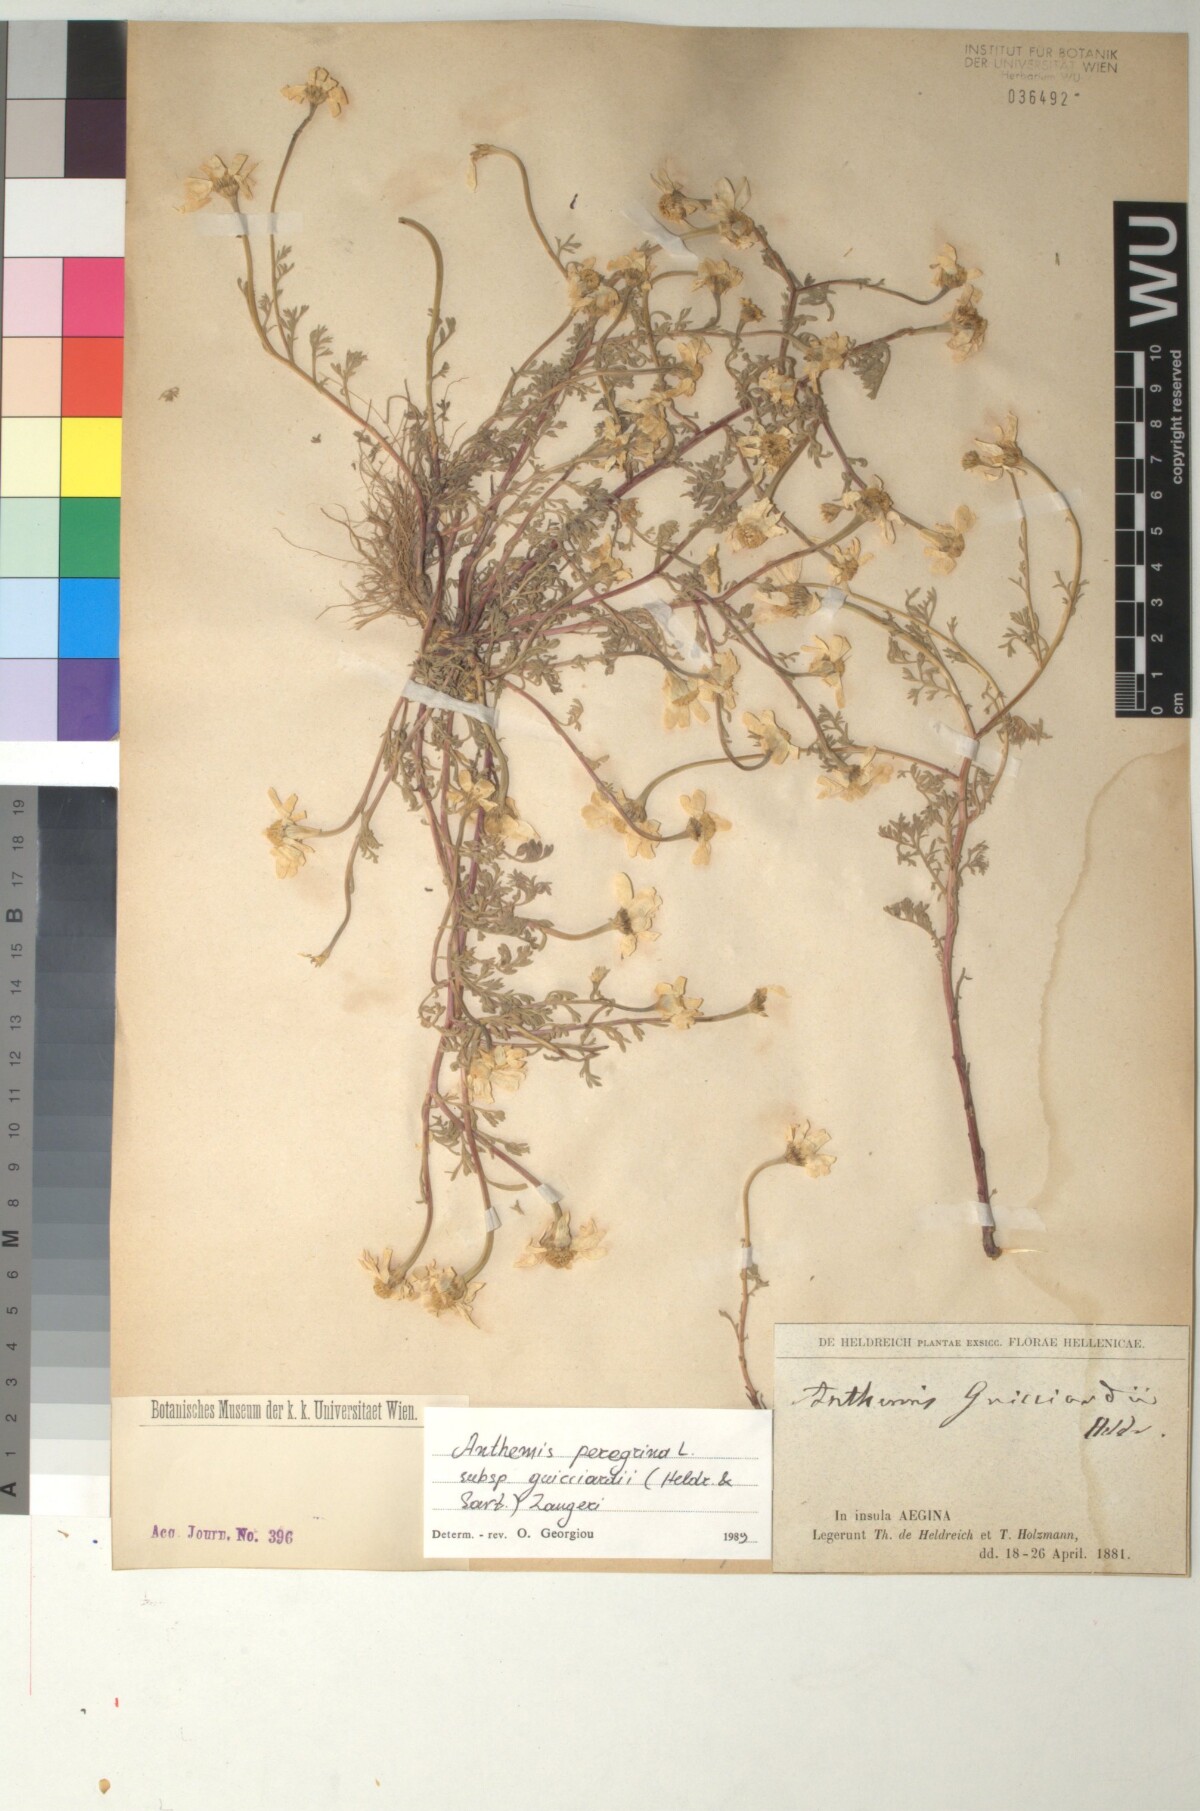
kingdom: Plantae
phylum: Tracheophyta
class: Magnoliopsida
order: Asterales
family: Asteraceae
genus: Anthemis
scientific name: Anthemis tomentosa
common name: Woolly chamomile
